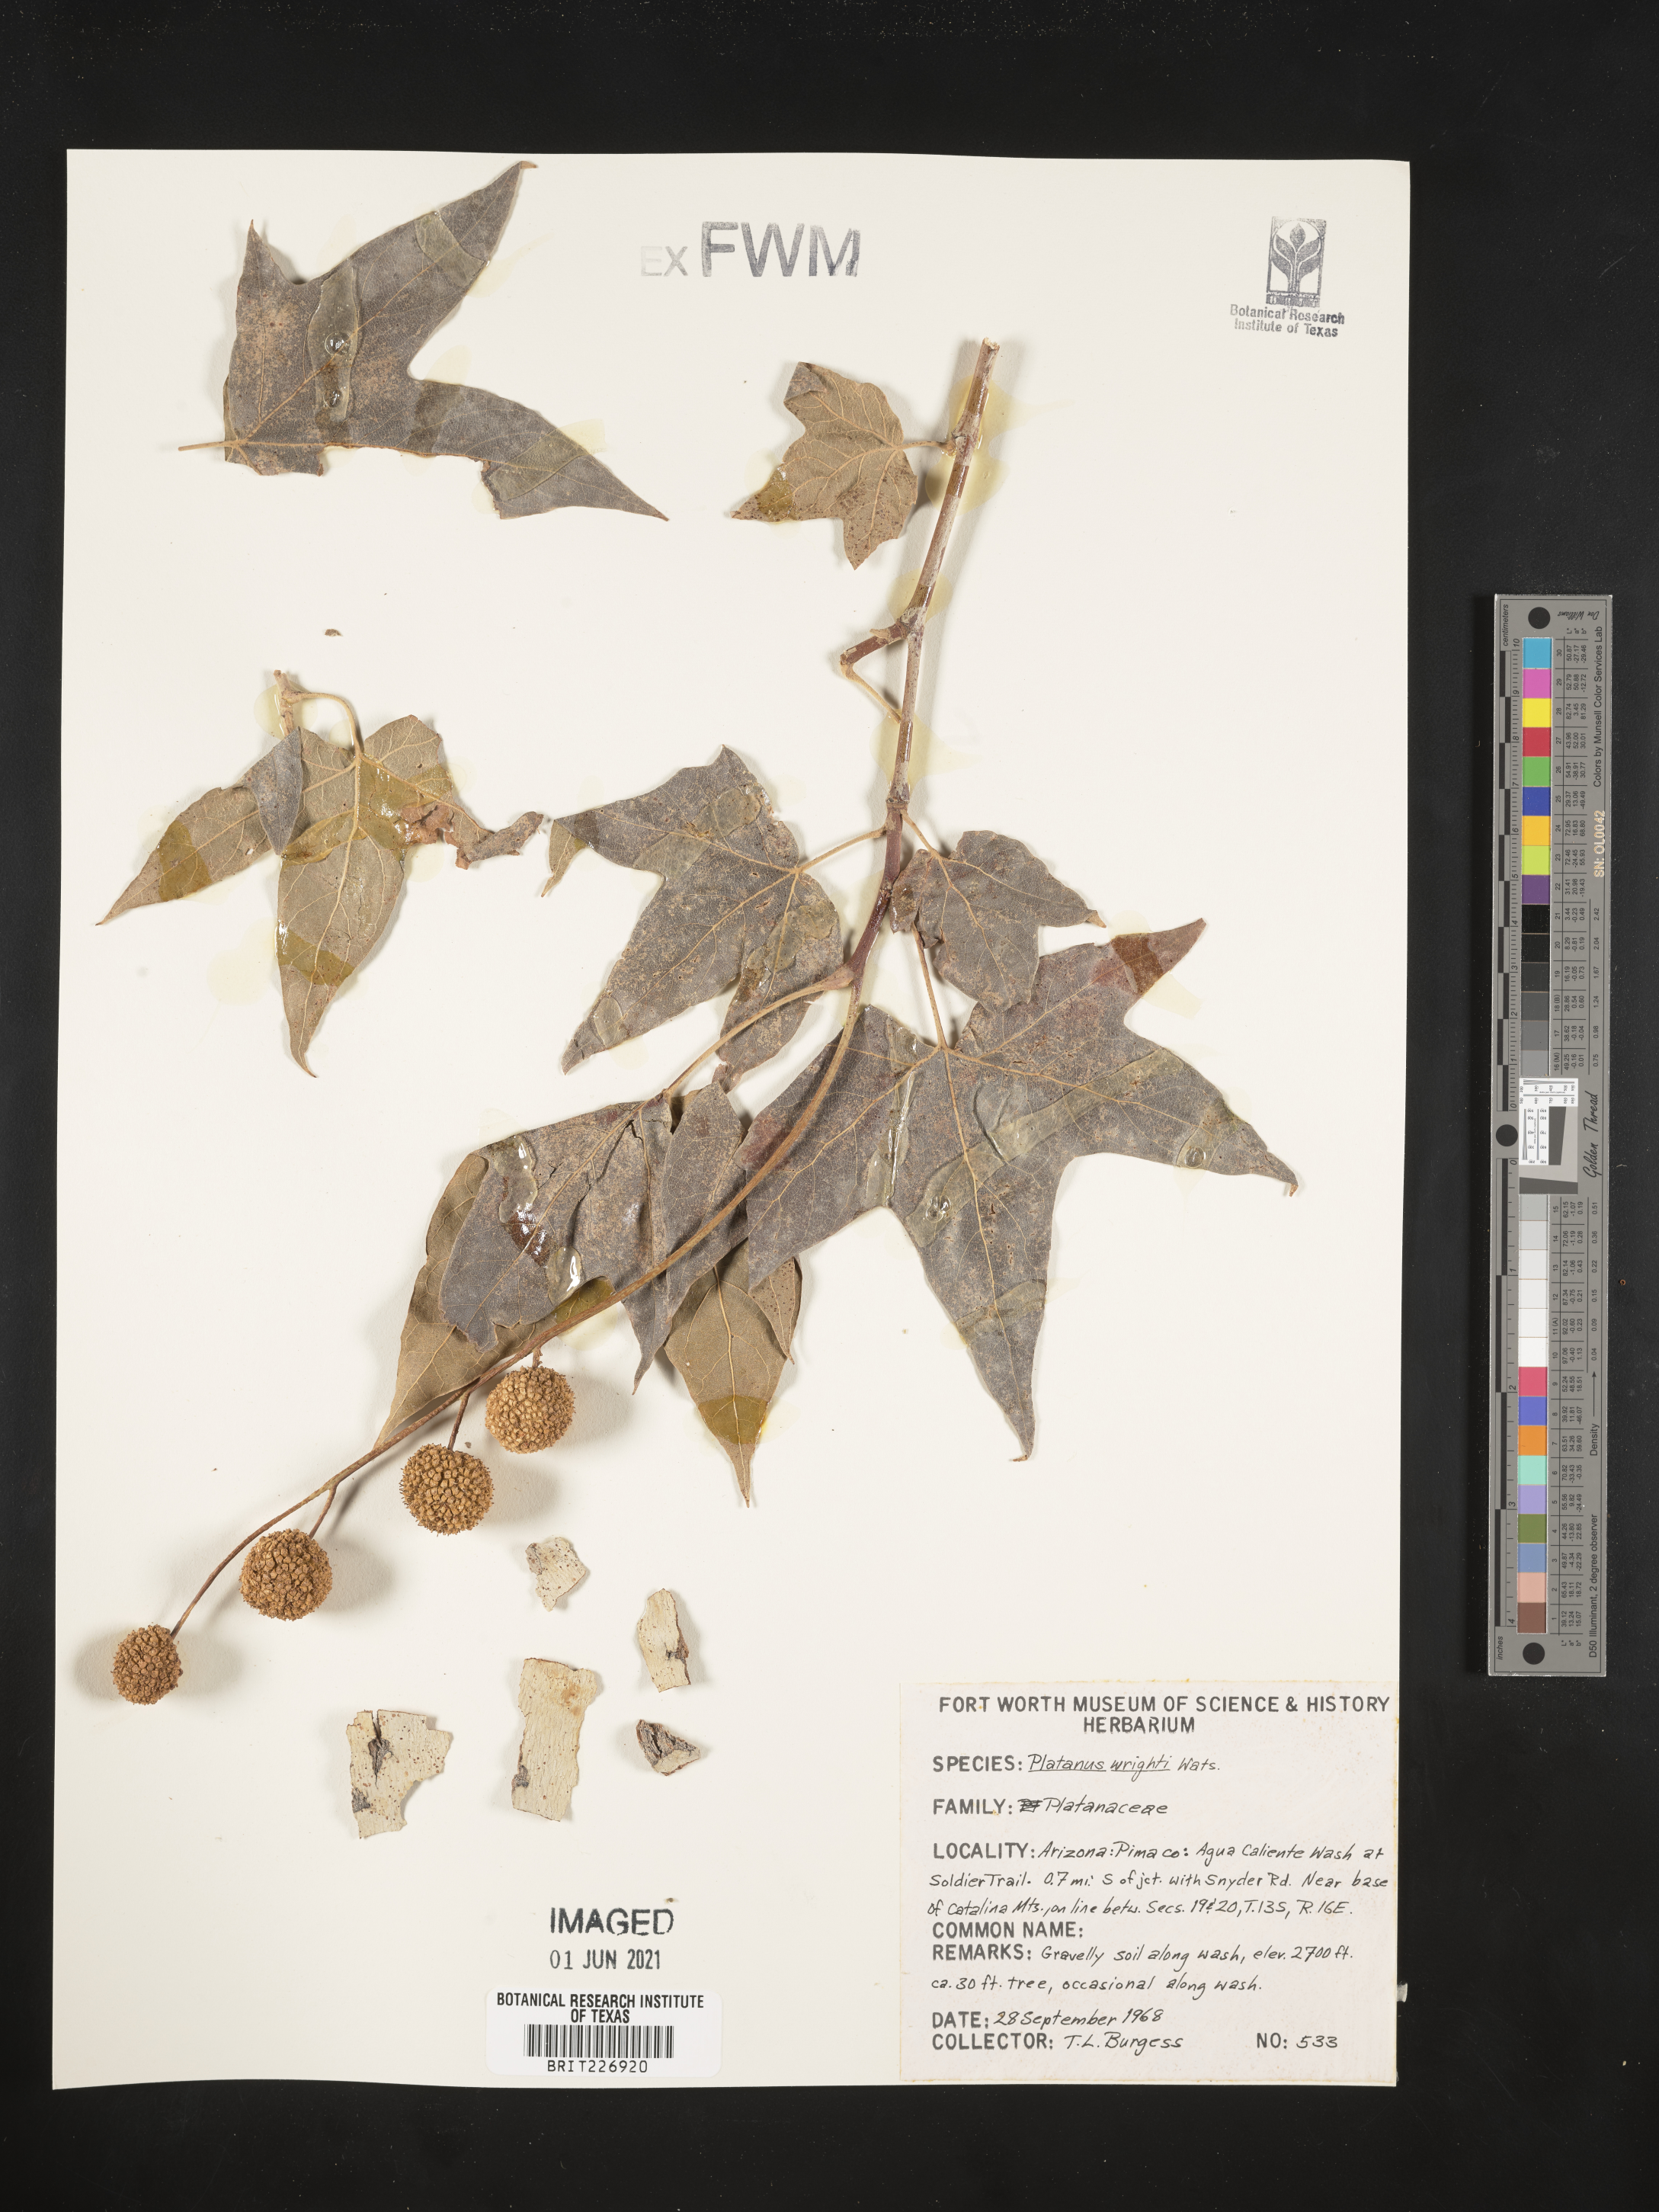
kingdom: Plantae
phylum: Tracheophyta
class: Magnoliopsida
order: Proteales
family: Platanaceae
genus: Platanus
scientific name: Platanus wrightii
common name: Arizona sycamore
